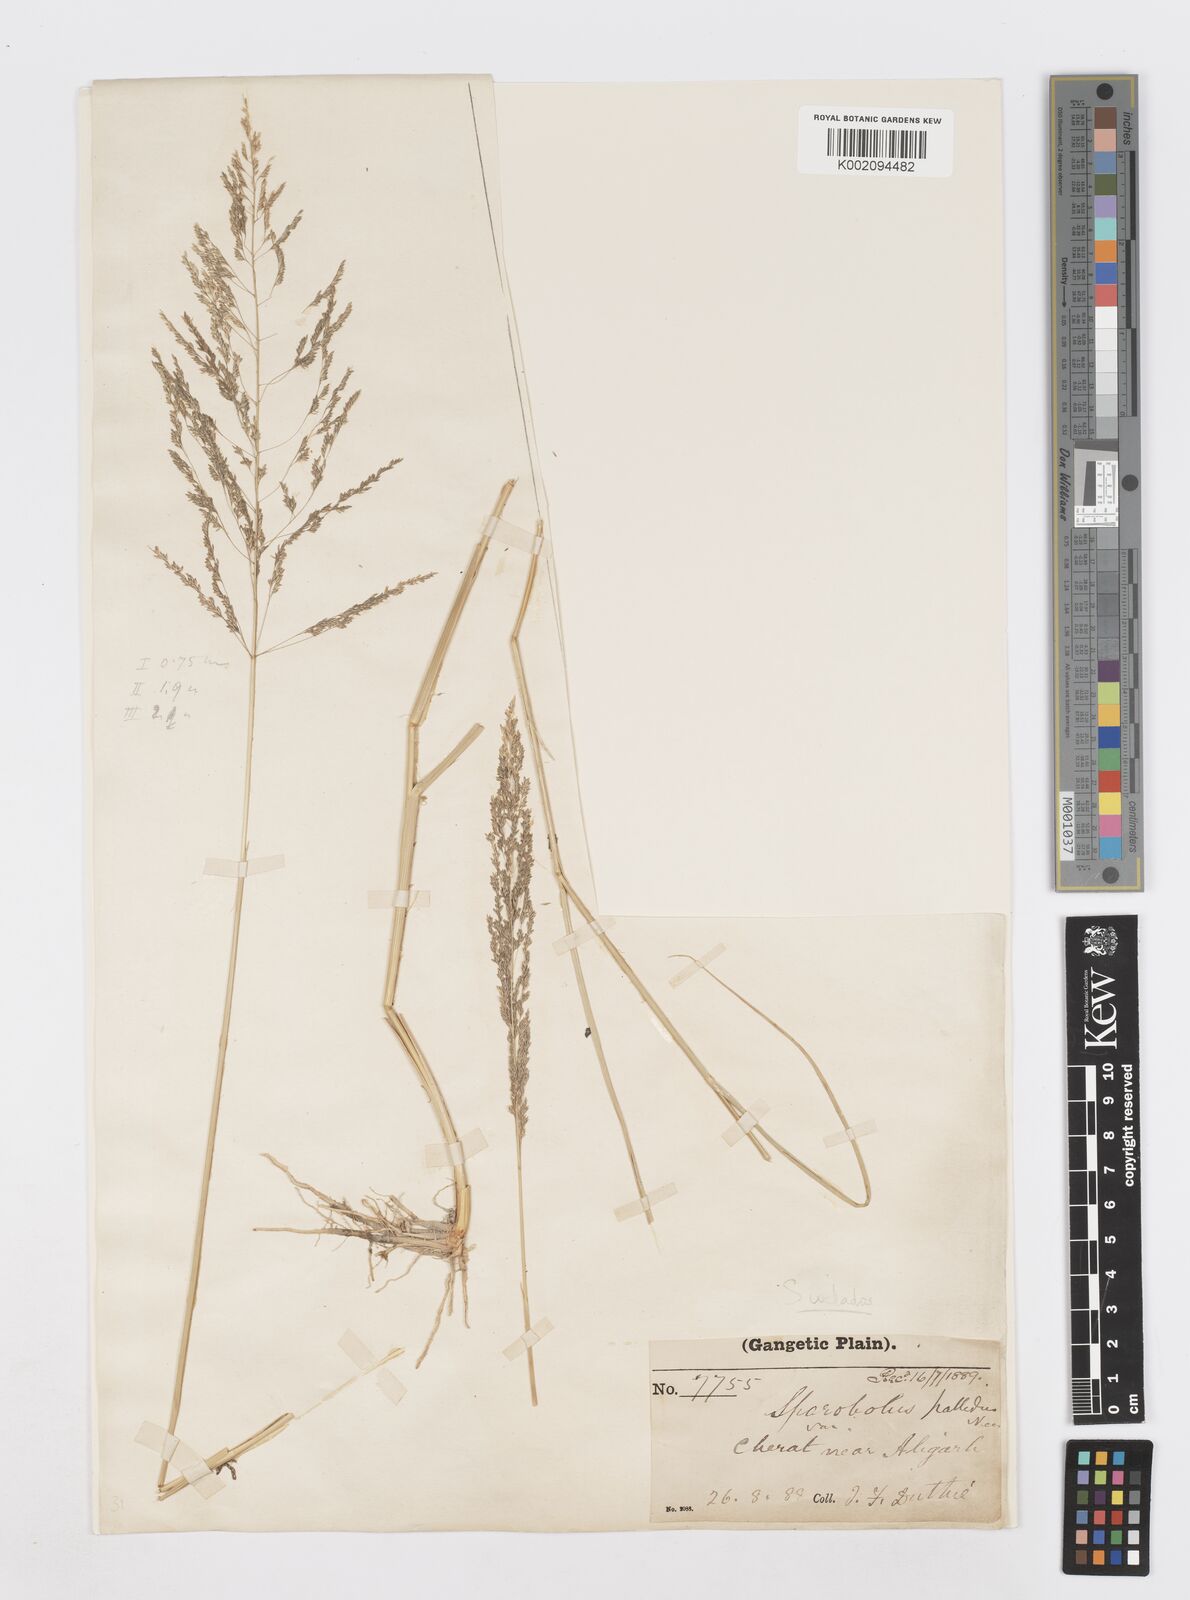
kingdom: Plantae
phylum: Tracheophyta
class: Liliopsida
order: Poales
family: Poaceae
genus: Sporobolus
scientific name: Sporobolus ioclados
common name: Pan dropseed
